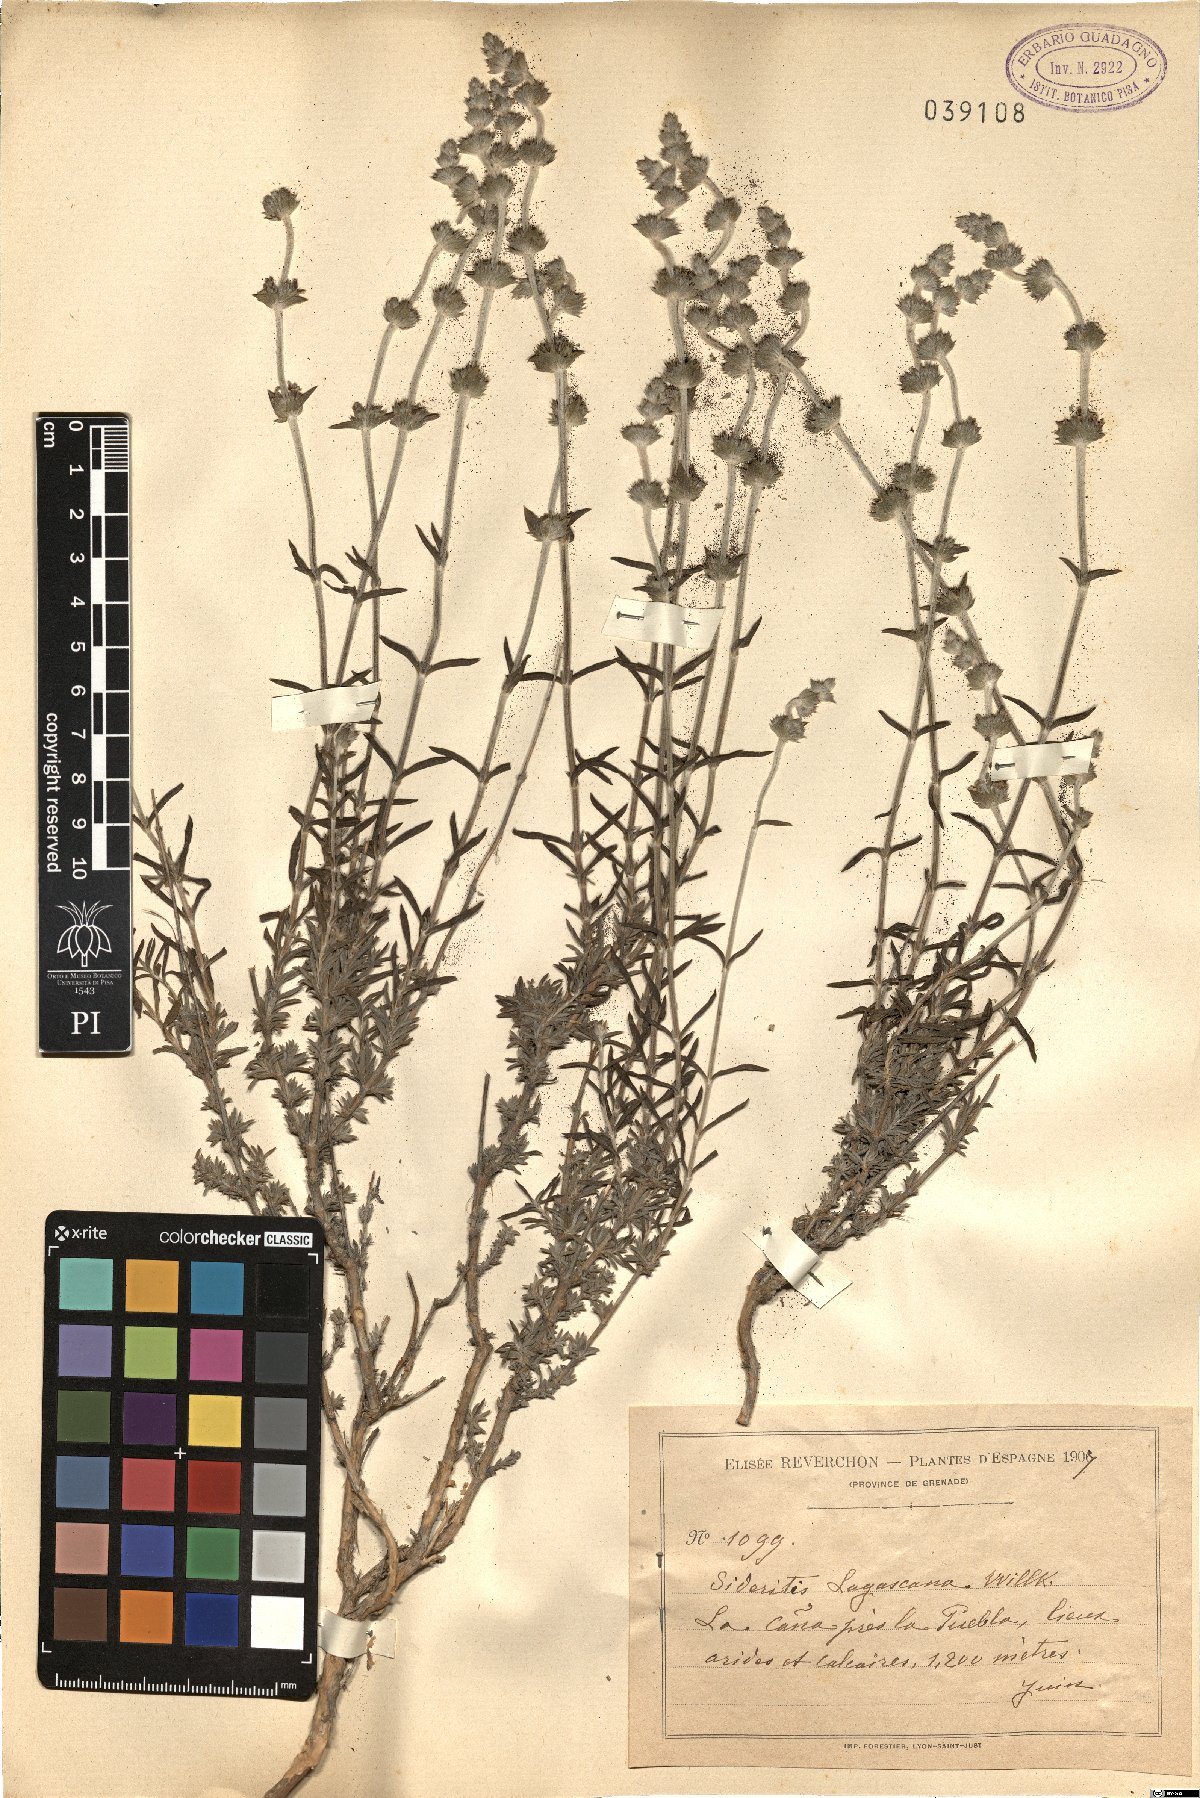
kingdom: Plantae
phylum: Tracheophyta
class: Magnoliopsida
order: Lamiales
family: Lamiaceae
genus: Sideritis
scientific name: Sideritis tragoriganum
